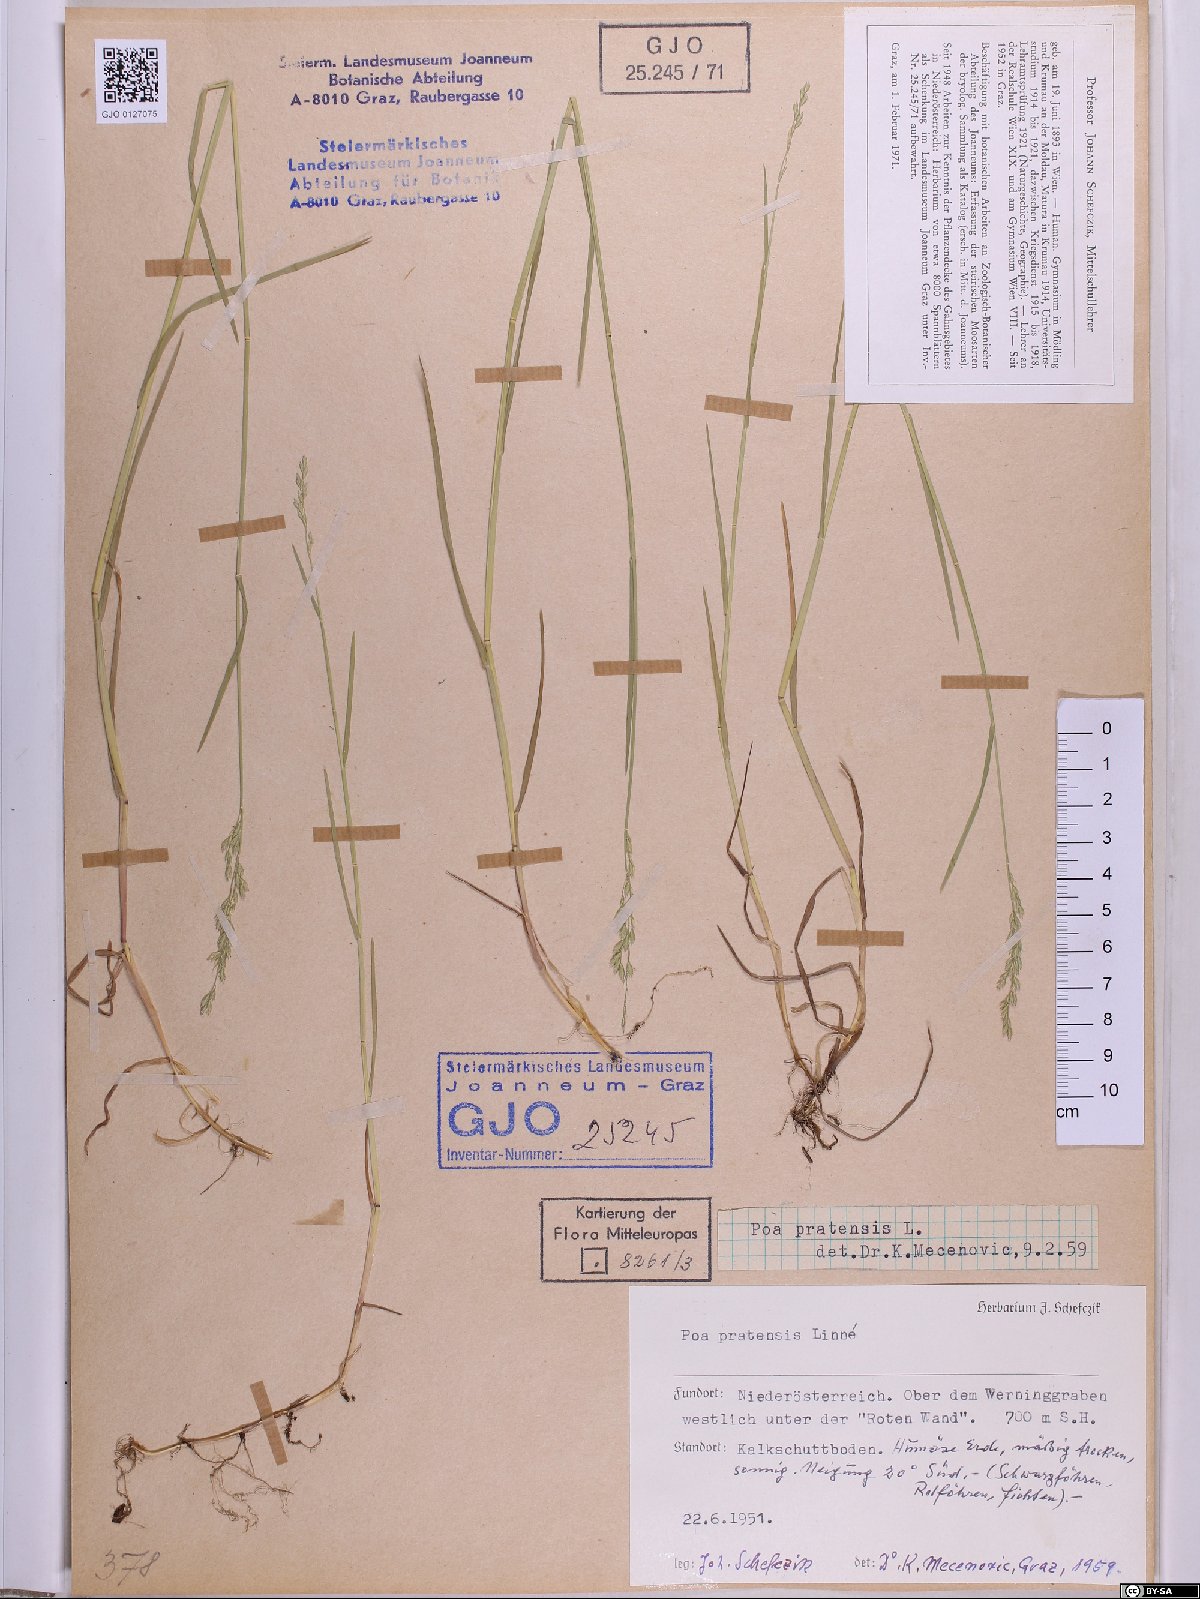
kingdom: Plantae
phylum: Tracheophyta
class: Liliopsida
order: Poales
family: Poaceae
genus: Poa
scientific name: Poa pratensis
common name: Kentucky bluegrass
